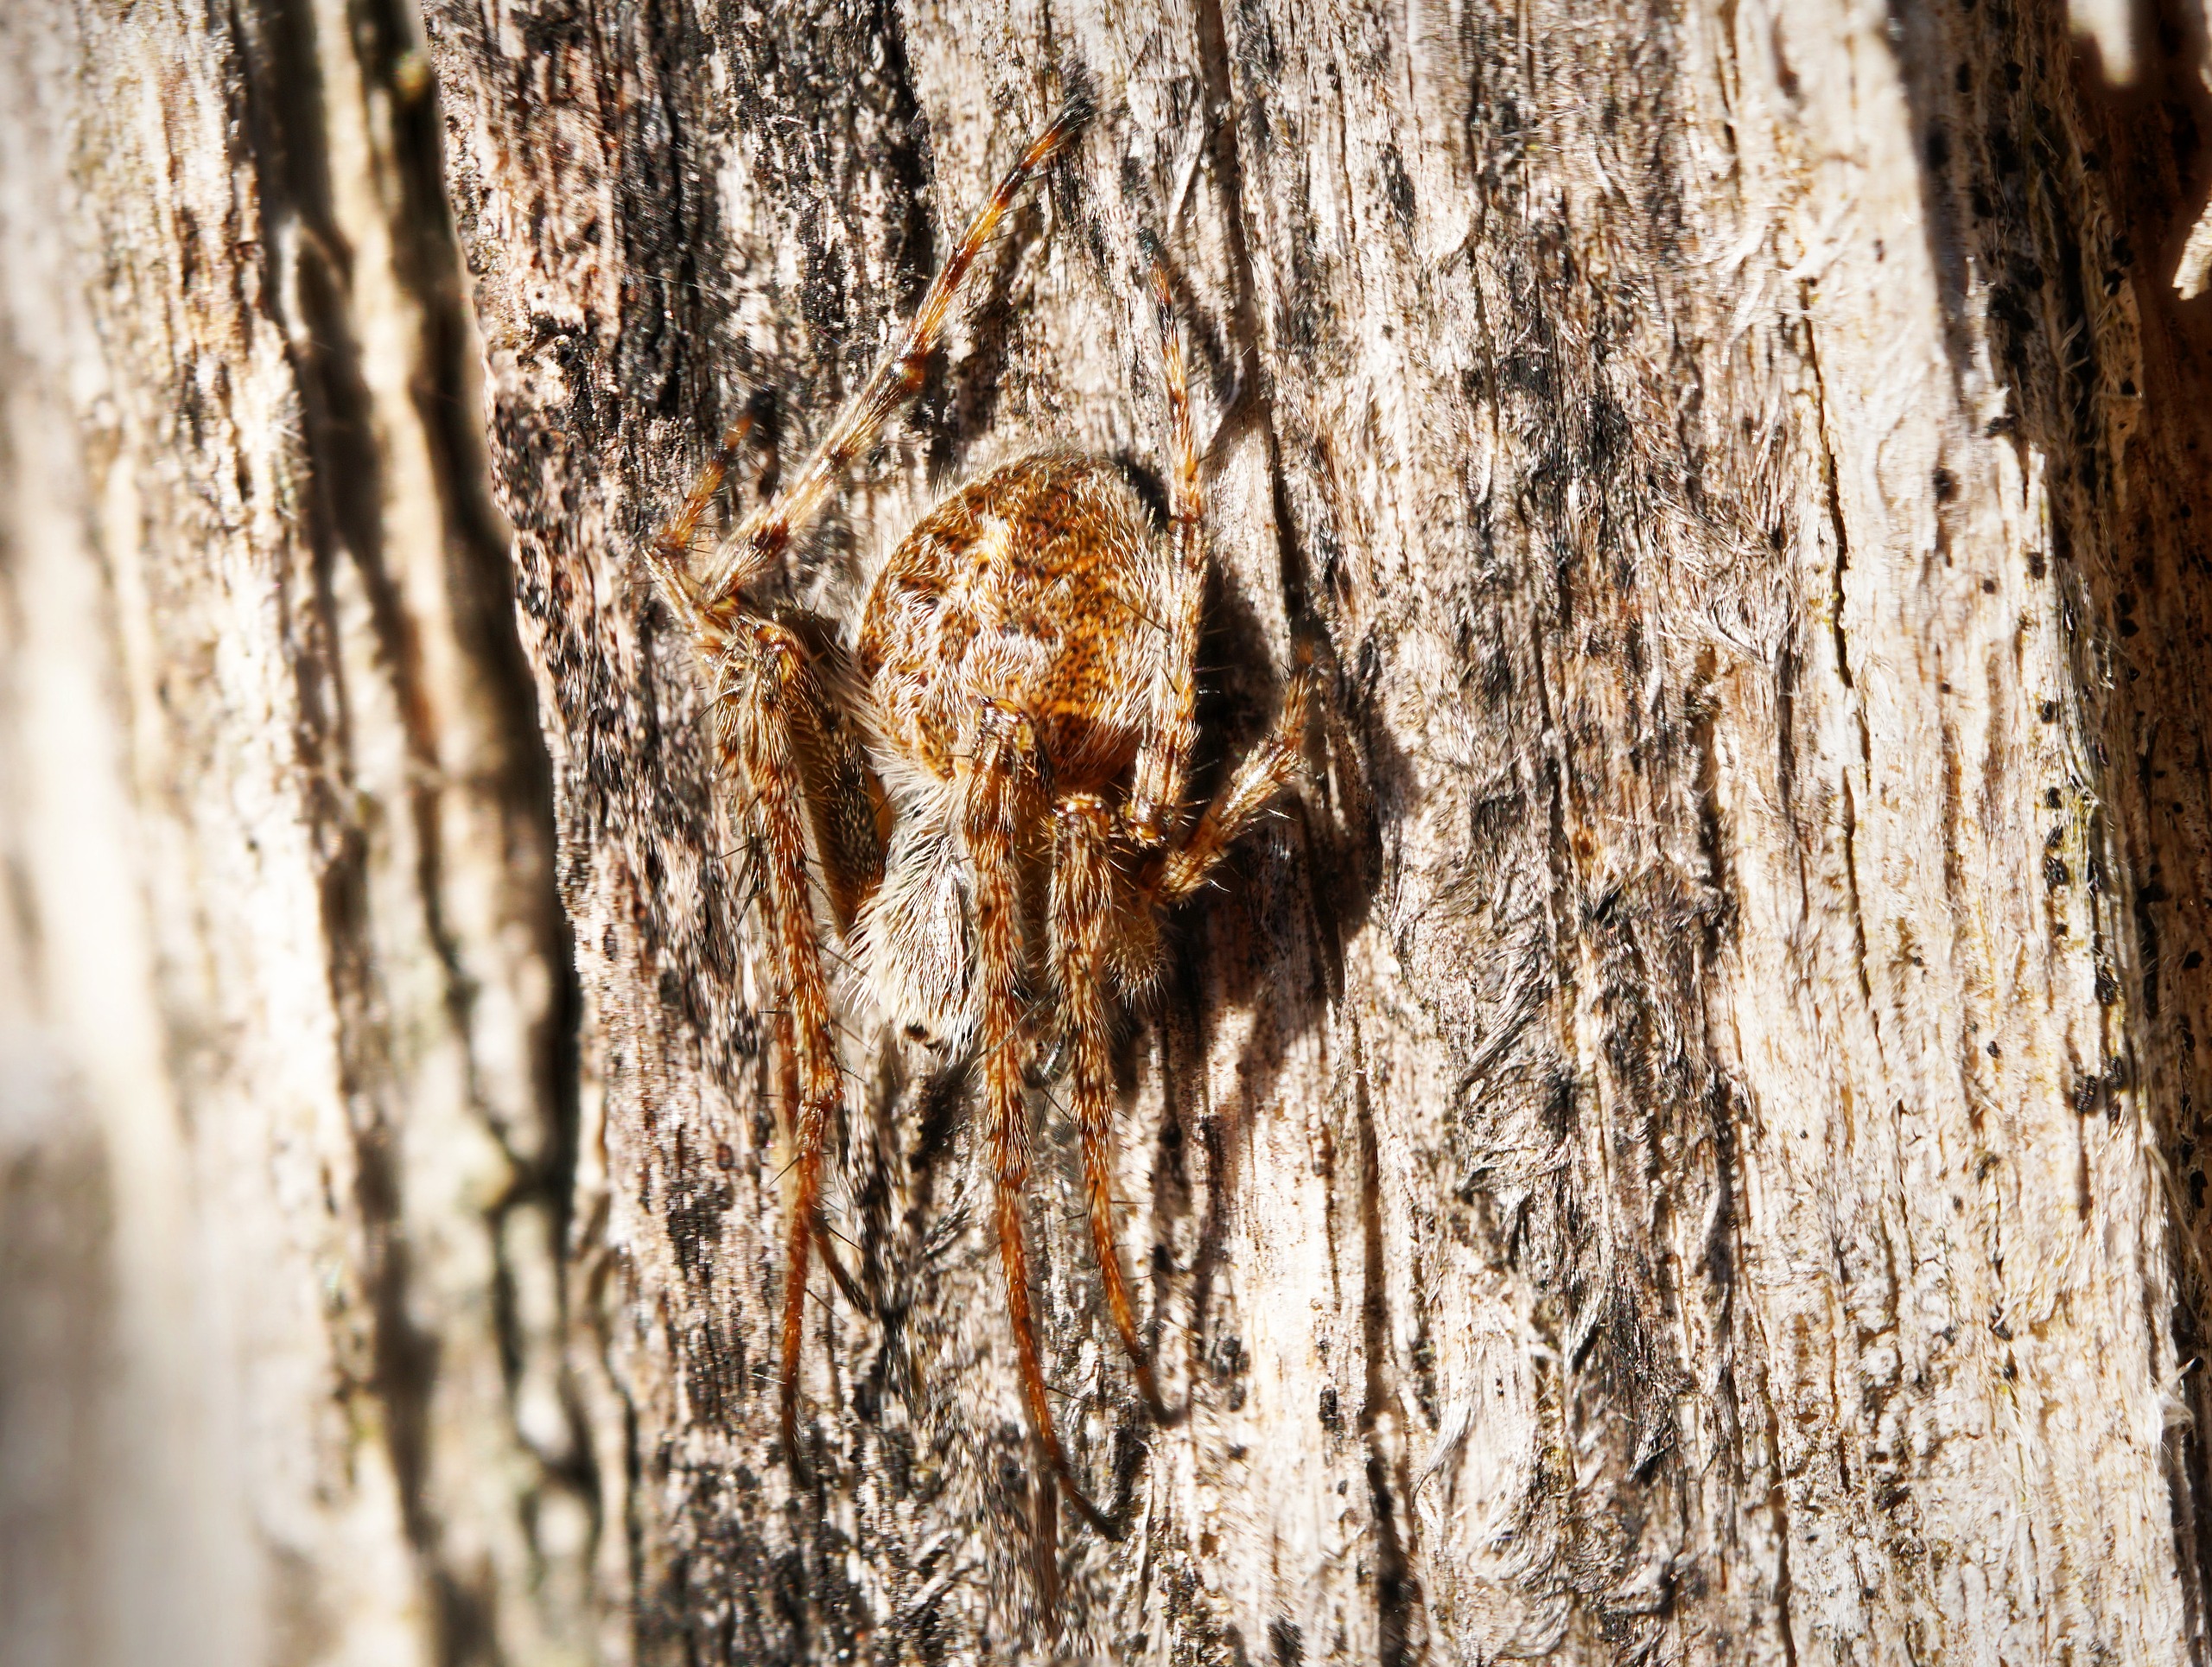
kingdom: Animalia
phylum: Arthropoda
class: Arachnida
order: Araneae
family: Araneidae
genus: Agalenatea
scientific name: Agalenatea redii
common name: Lodden hjulspinder
